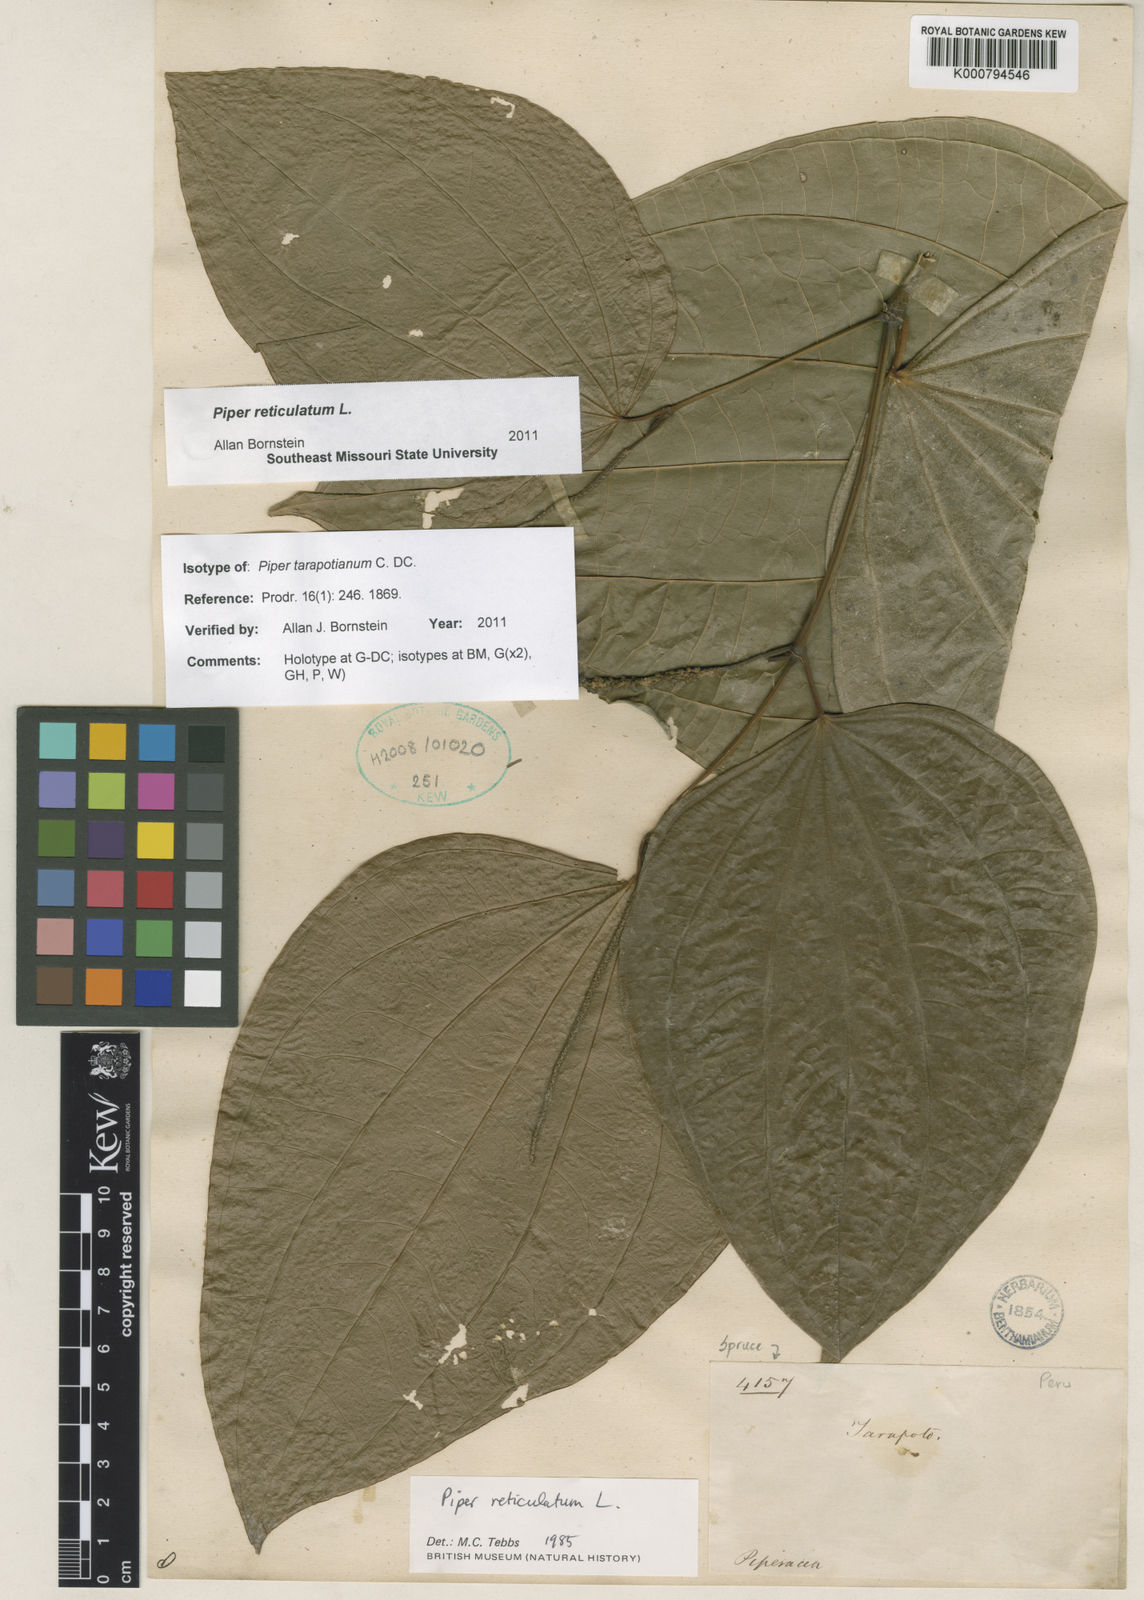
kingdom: Plantae
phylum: Tracheophyta
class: Magnoliopsida
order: Piperales
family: Piperaceae
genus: Piper
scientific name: Piper reticulatum
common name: Wild cane
